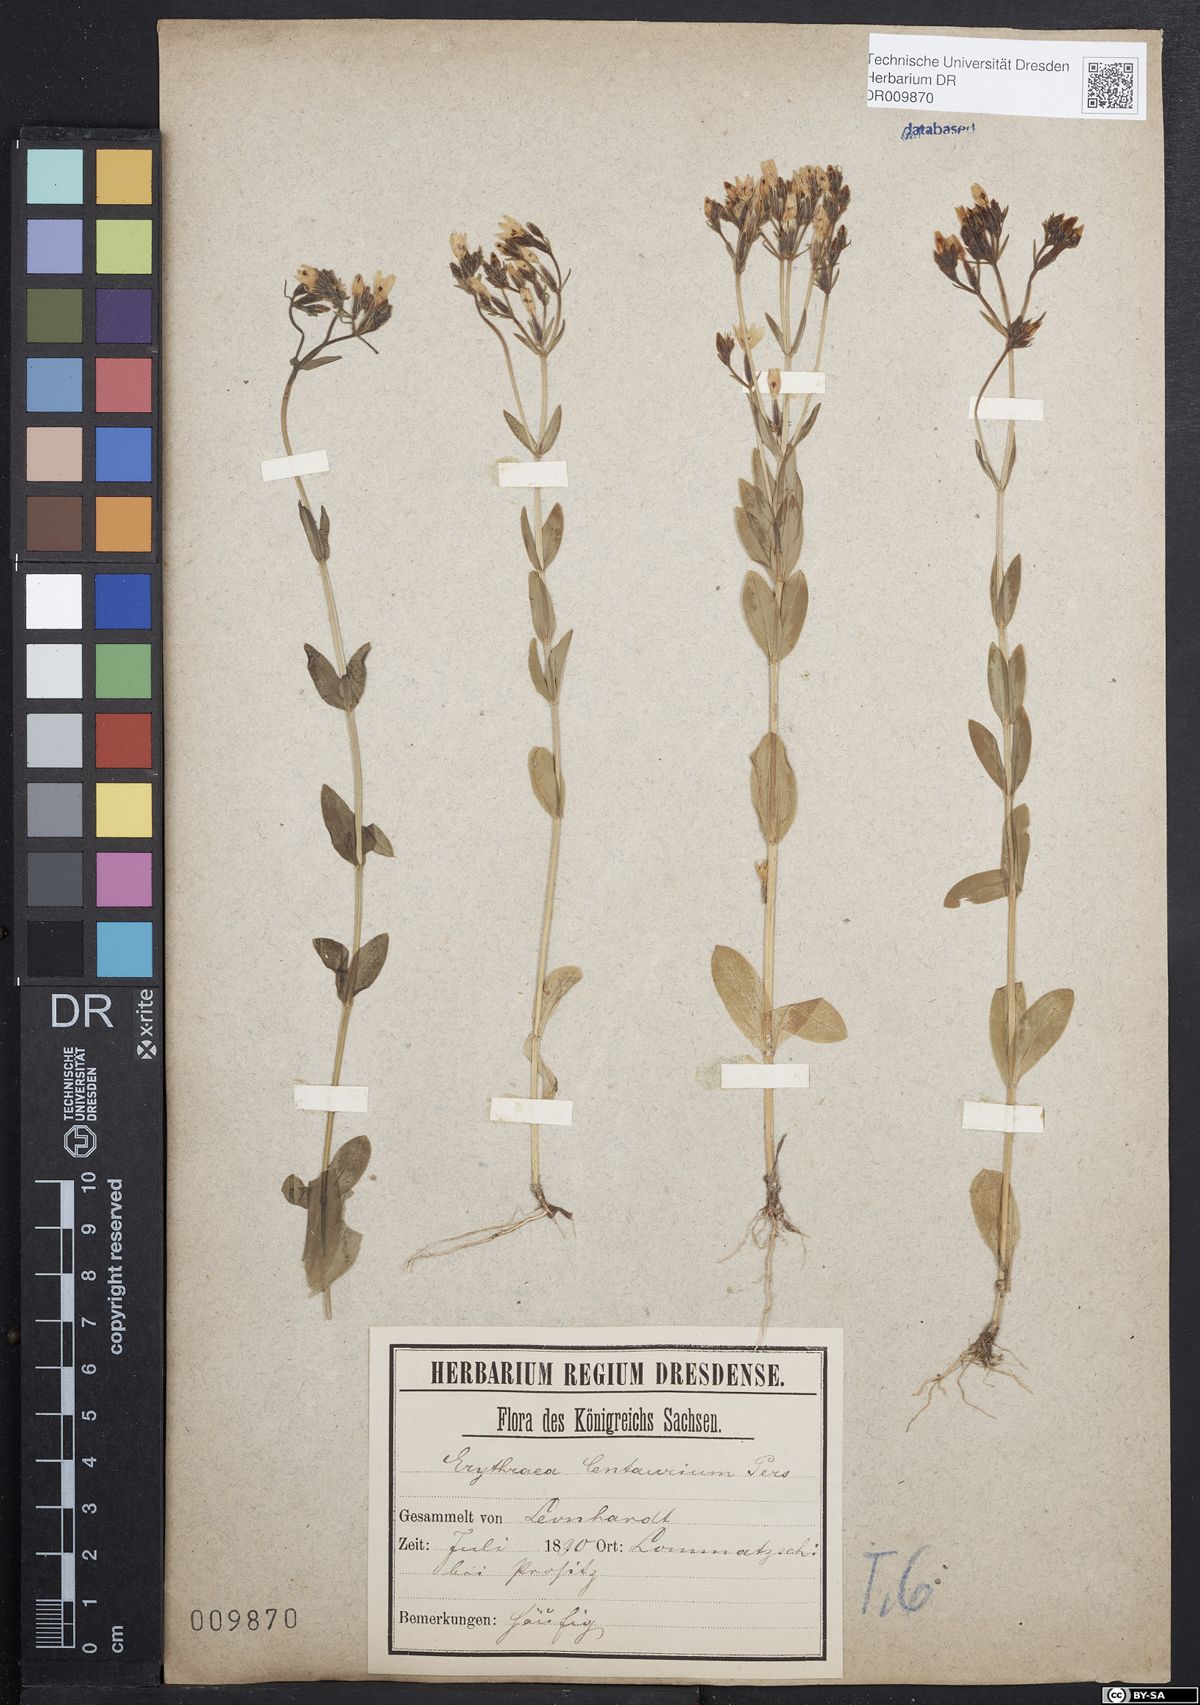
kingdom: Plantae
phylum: Tracheophyta
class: Magnoliopsida
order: Gentianales
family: Gentianaceae
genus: Centaurium
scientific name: Centaurium erythraea
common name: Common centaury
